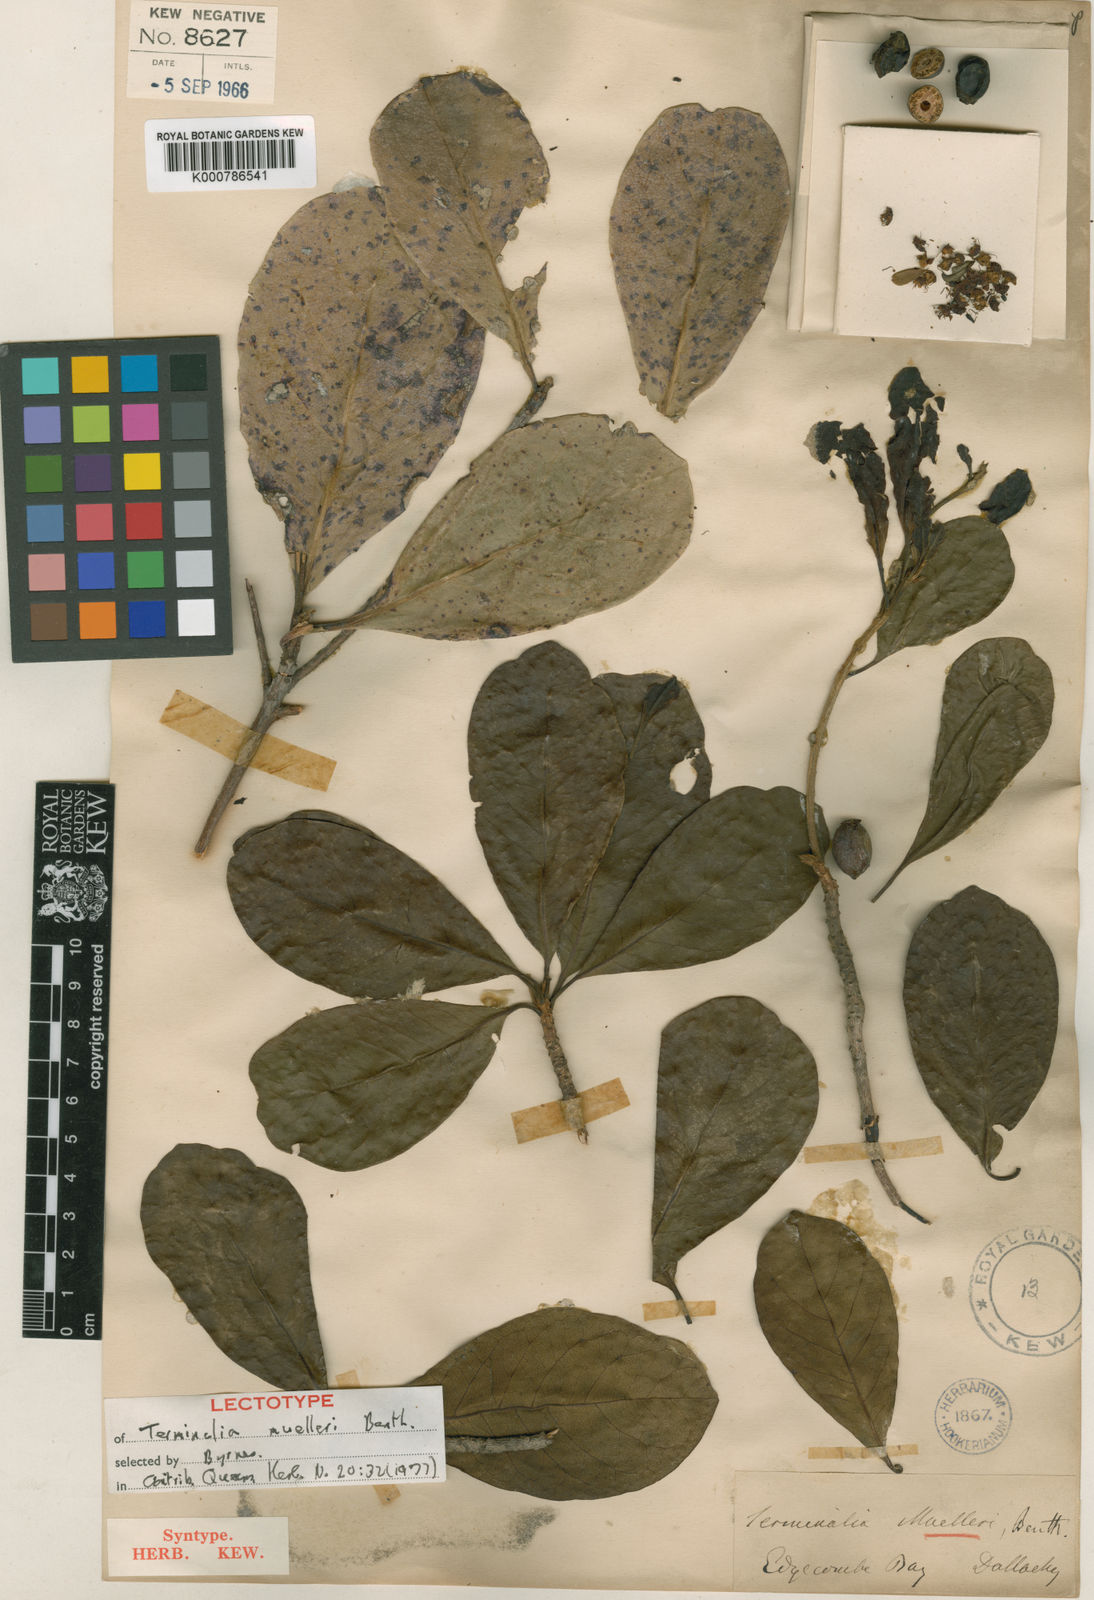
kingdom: Plantae
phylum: Tracheophyta
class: Magnoliopsida
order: Myrtales
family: Combretaceae
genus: Terminalia
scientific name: Terminalia muelleri
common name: Australian almond
